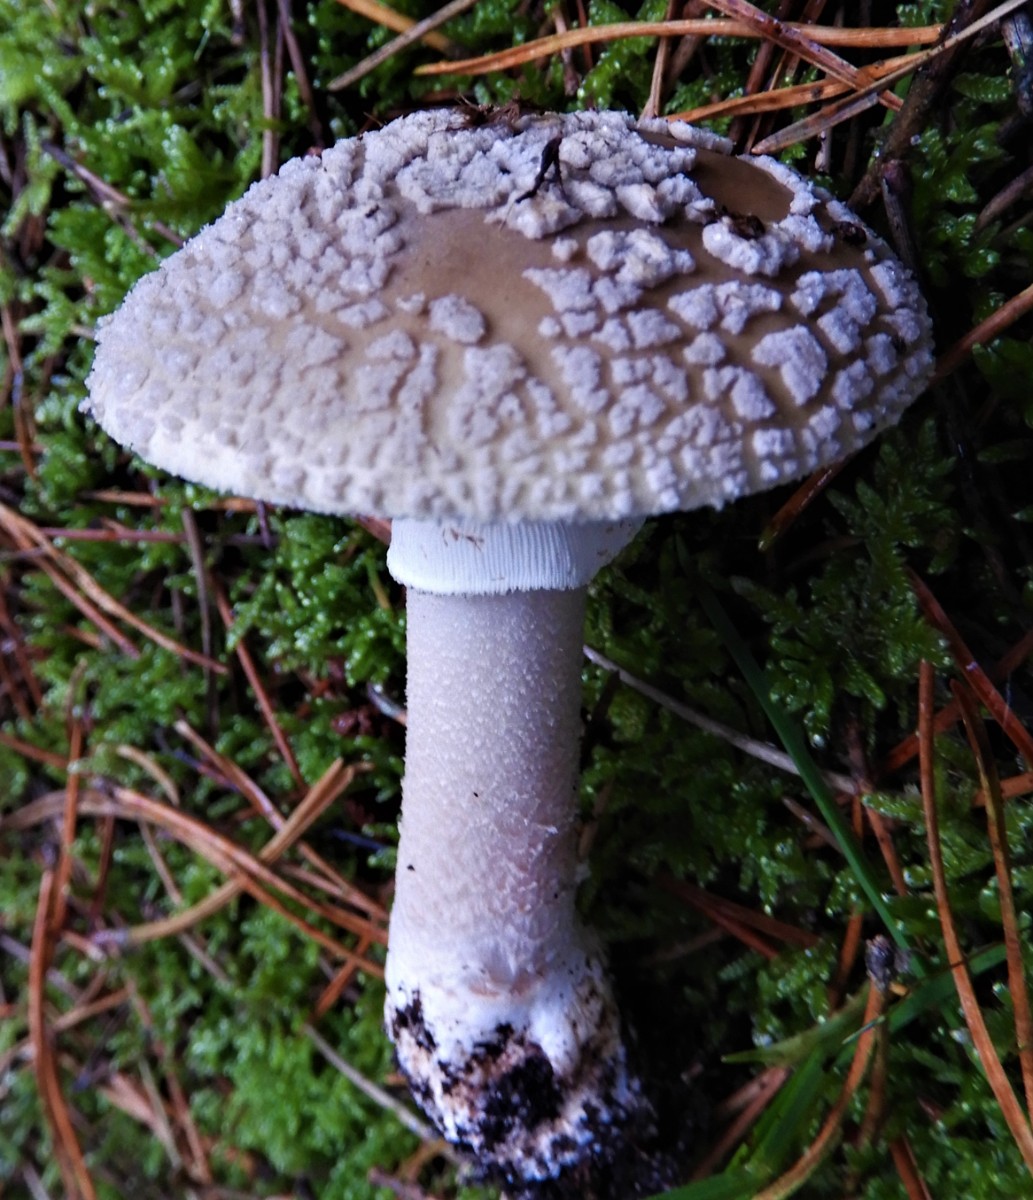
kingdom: Fungi
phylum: Basidiomycota
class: Agaricomycetes
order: Agaricales
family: Amanitaceae
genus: Amanita
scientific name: Amanita
